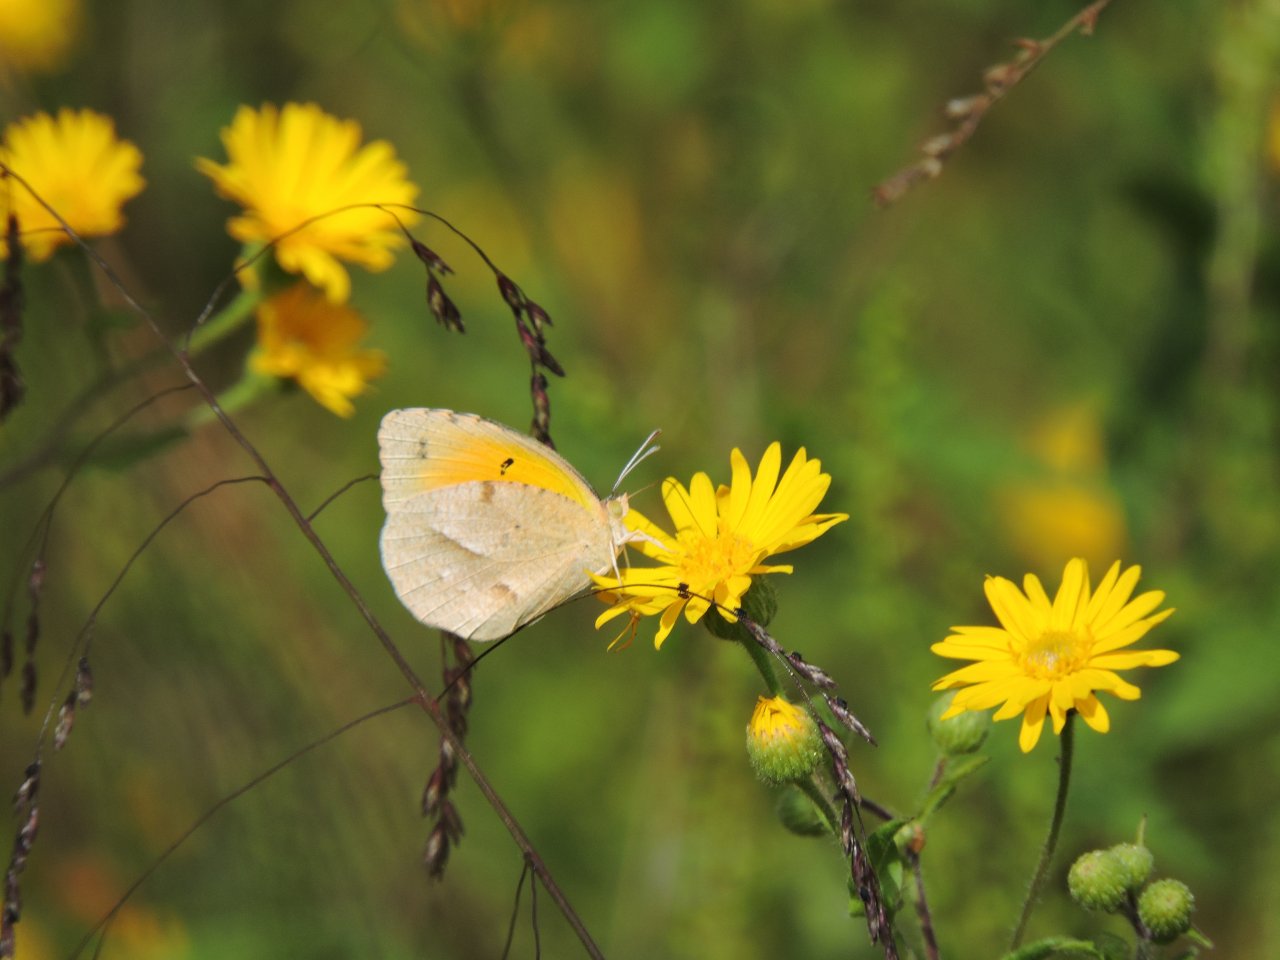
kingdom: Animalia
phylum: Arthropoda
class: Insecta
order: Lepidoptera
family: Pieridae
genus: Abaeis
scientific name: Abaeis nicippe
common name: Sleepy Orange
